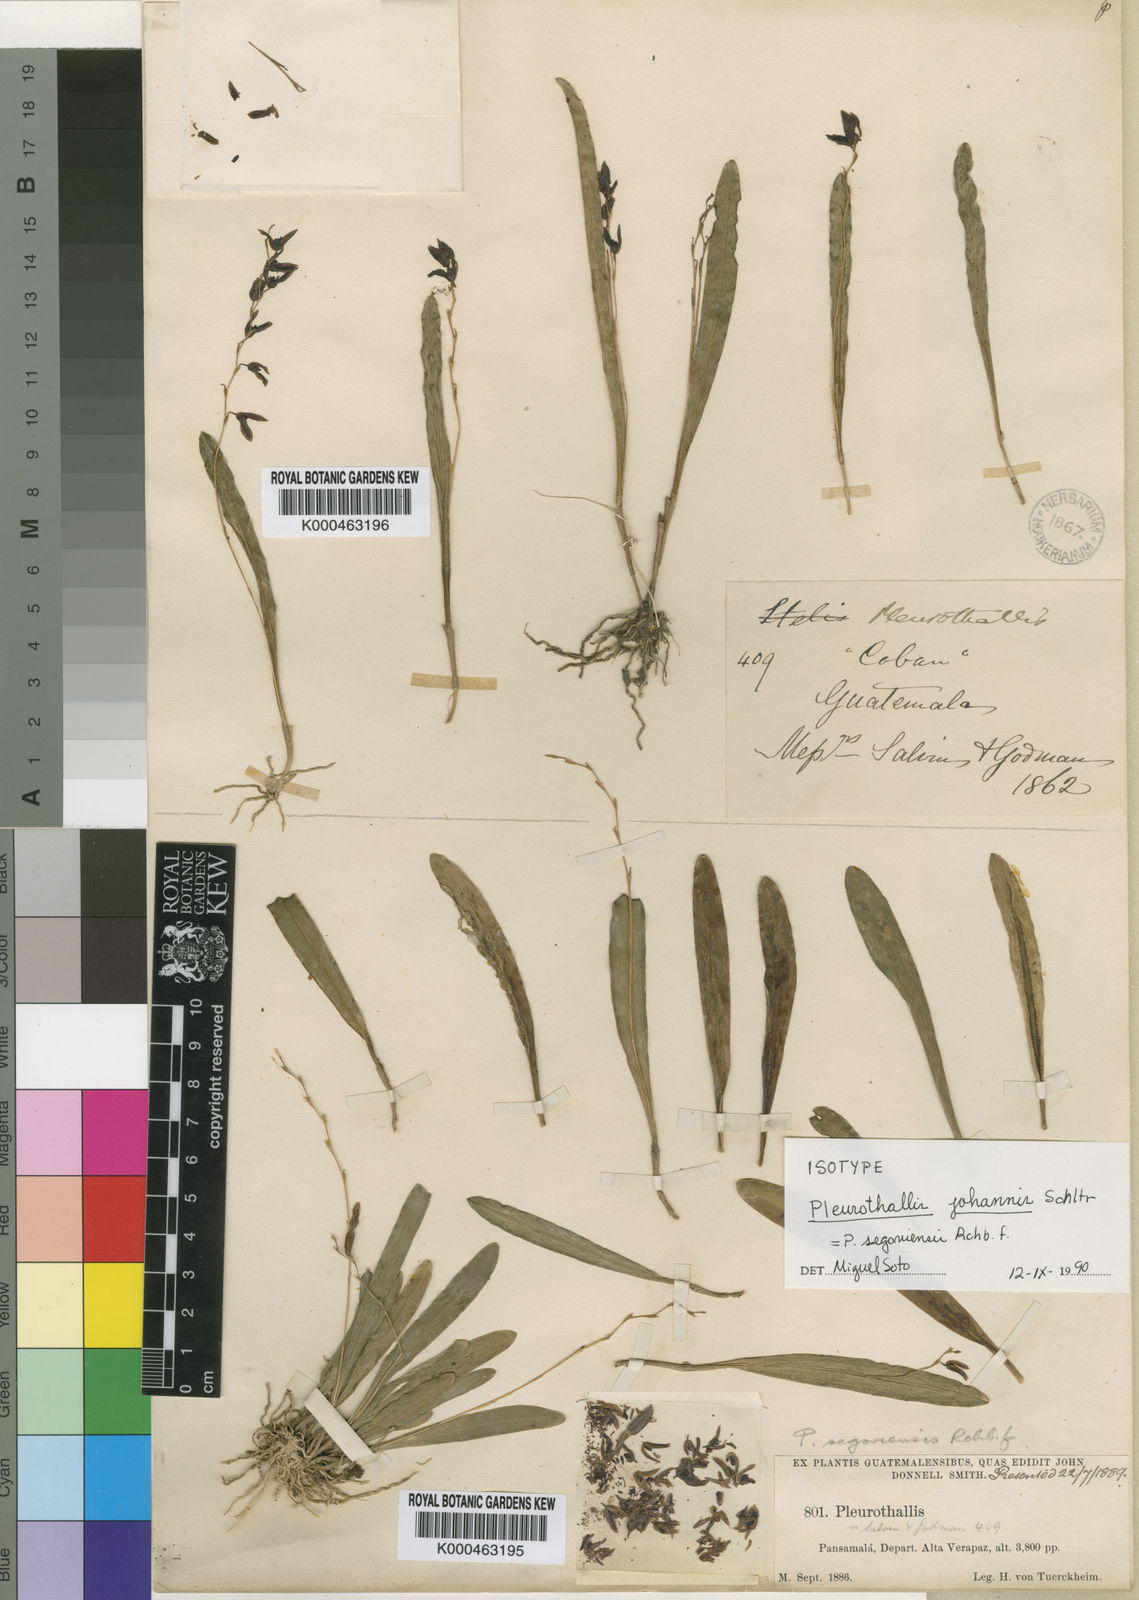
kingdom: Plantae
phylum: Tracheophyta
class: Liliopsida
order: Asparagales
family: Orchidaceae
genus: Stelis
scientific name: Stelis segoviensis
